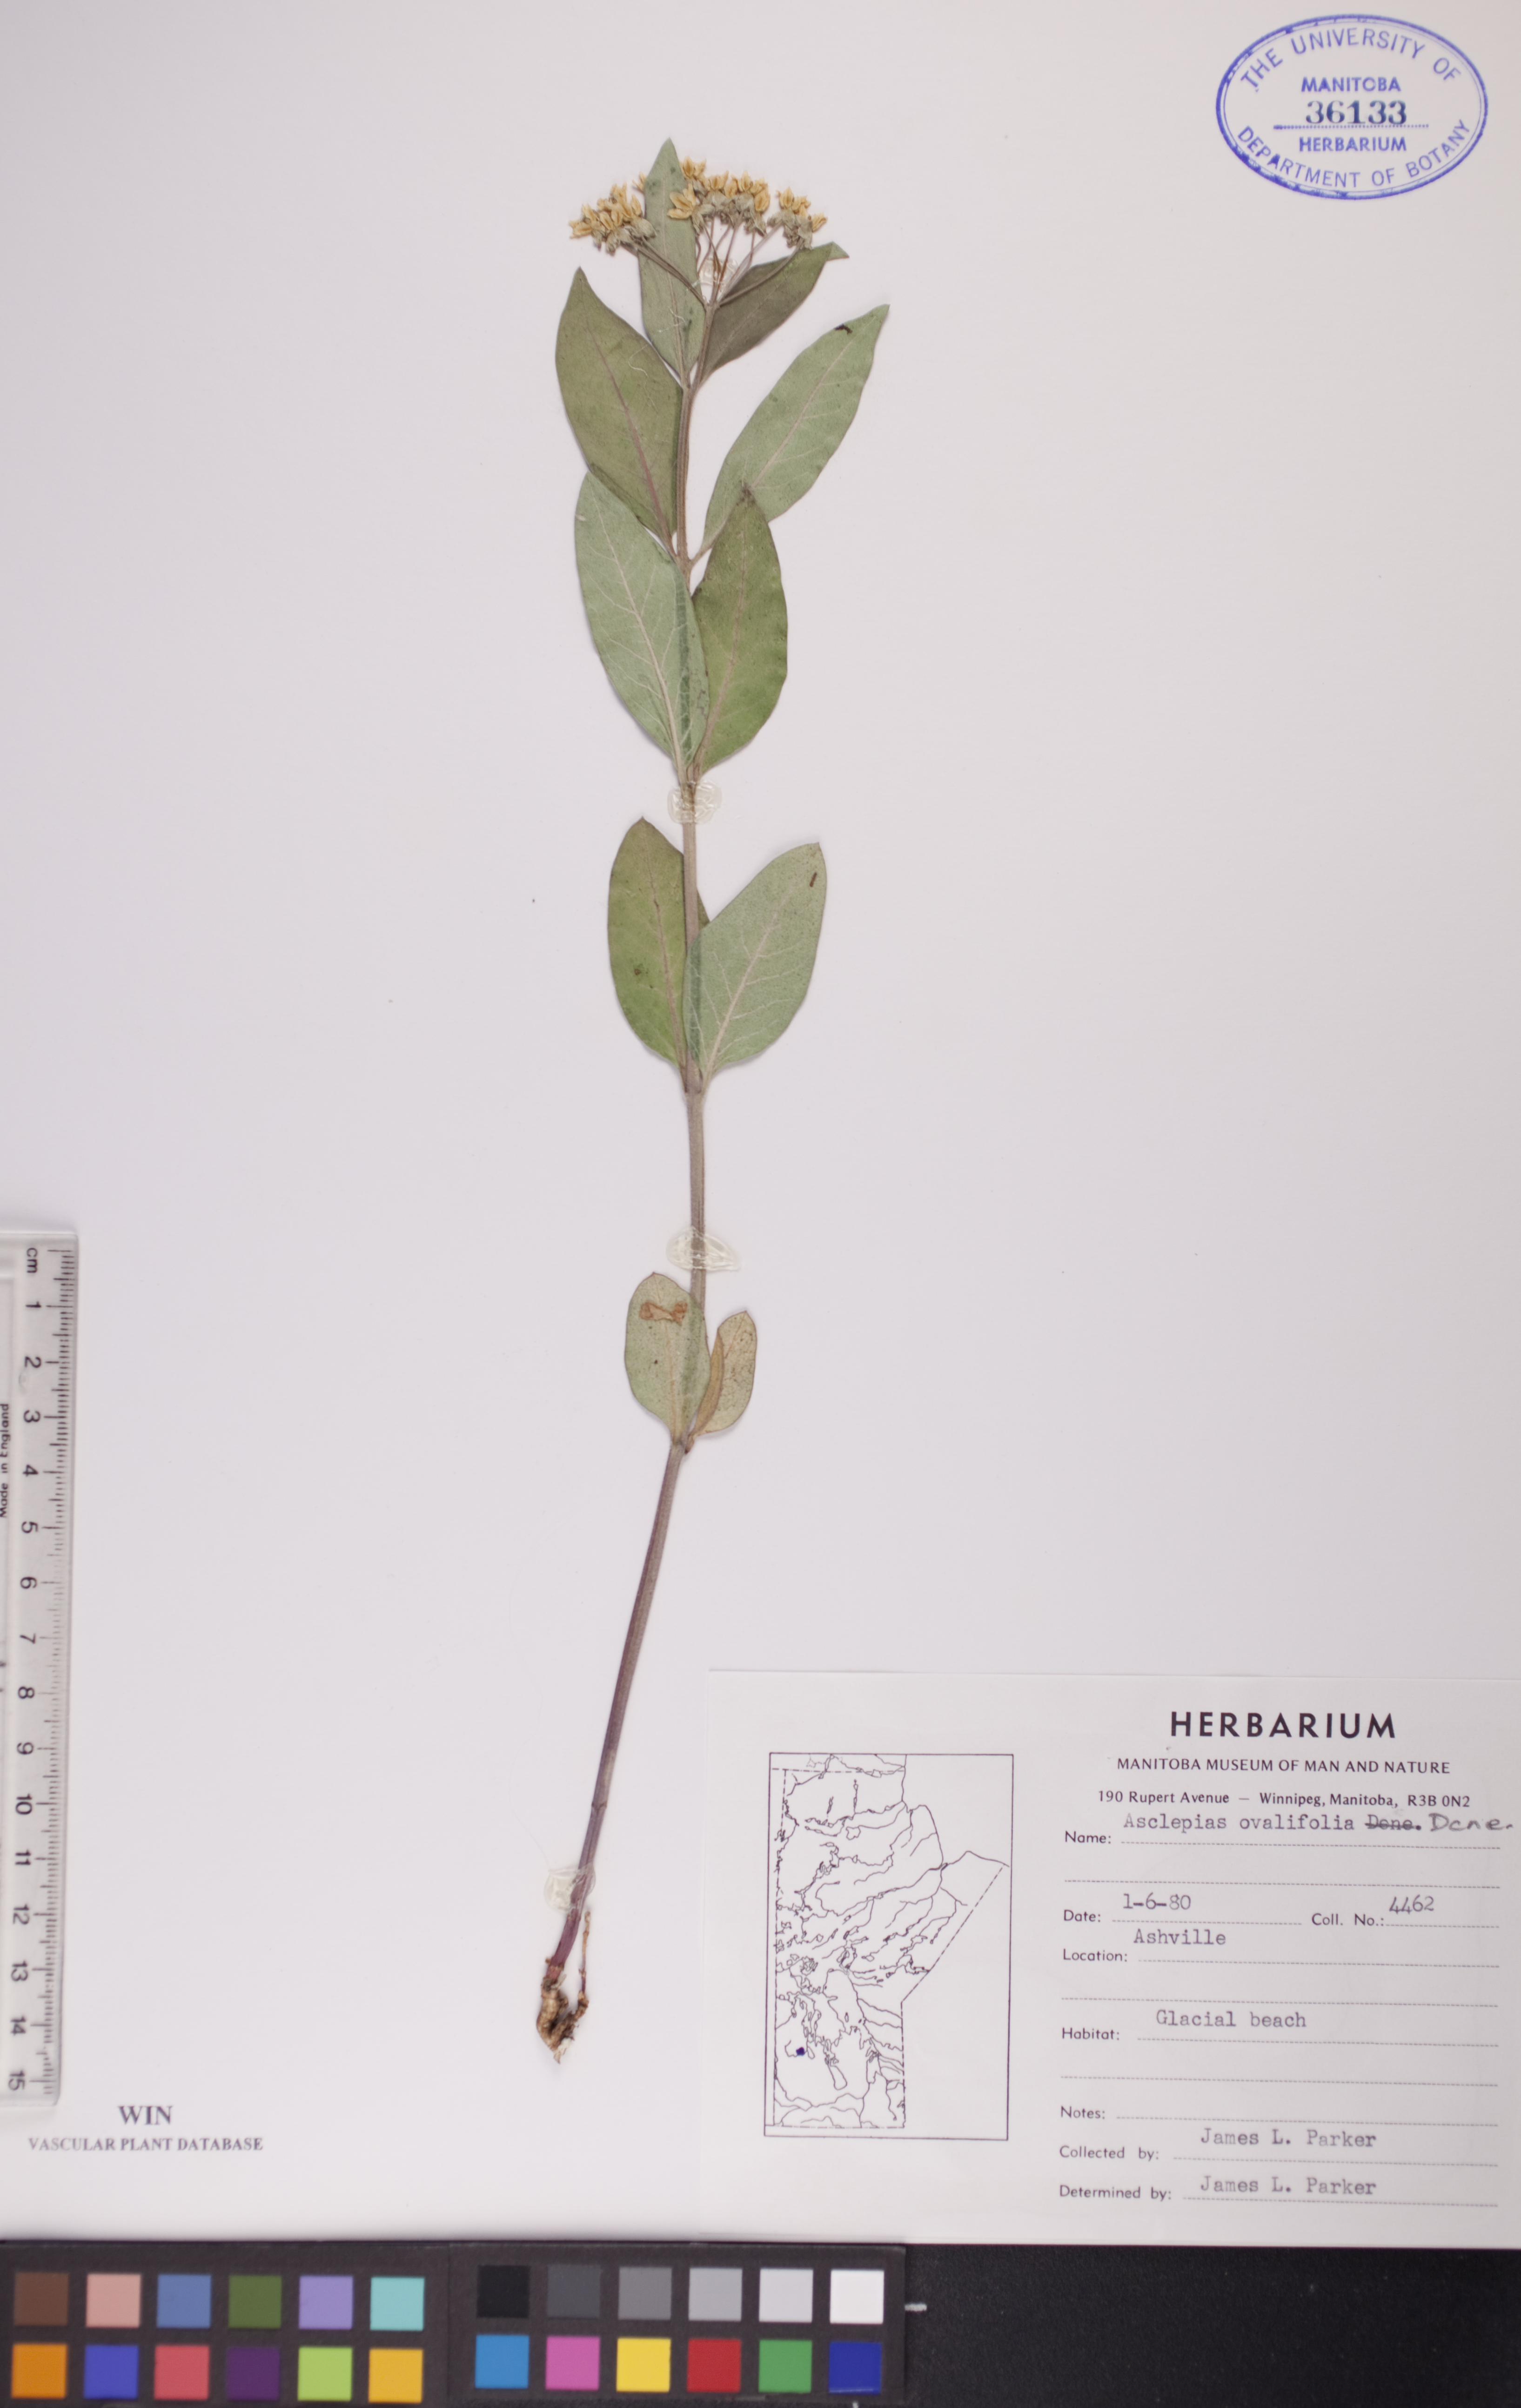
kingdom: Plantae
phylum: Tracheophyta
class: Magnoliopsida
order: Gentianales
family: Apocynaceae
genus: Asclepias
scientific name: Asclepias ovalifolia
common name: Dwarf milkweed
